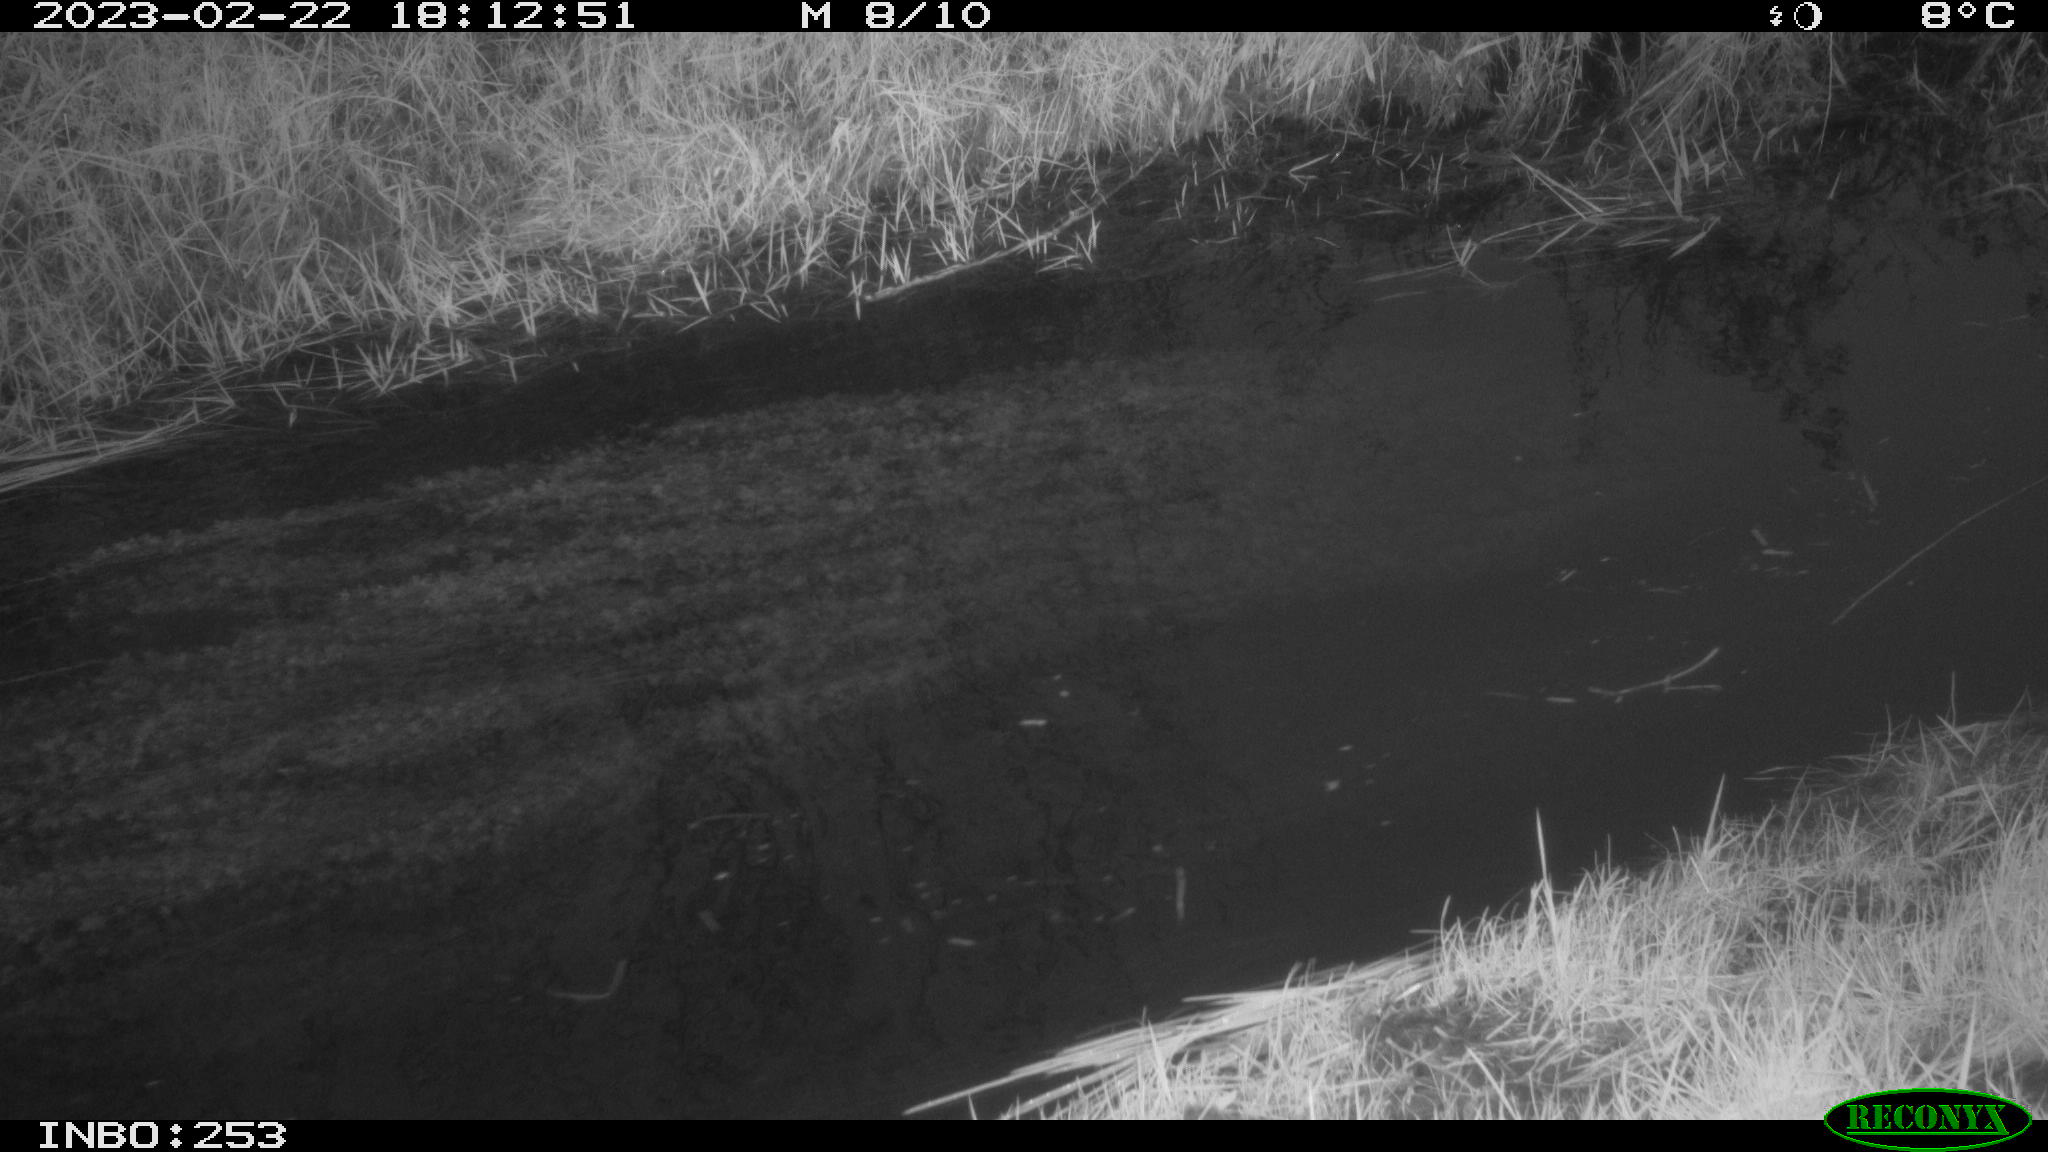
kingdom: Animalia
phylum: Chordata
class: Aves
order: Anseriformes
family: Anatidae
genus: Anas
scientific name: Anas
